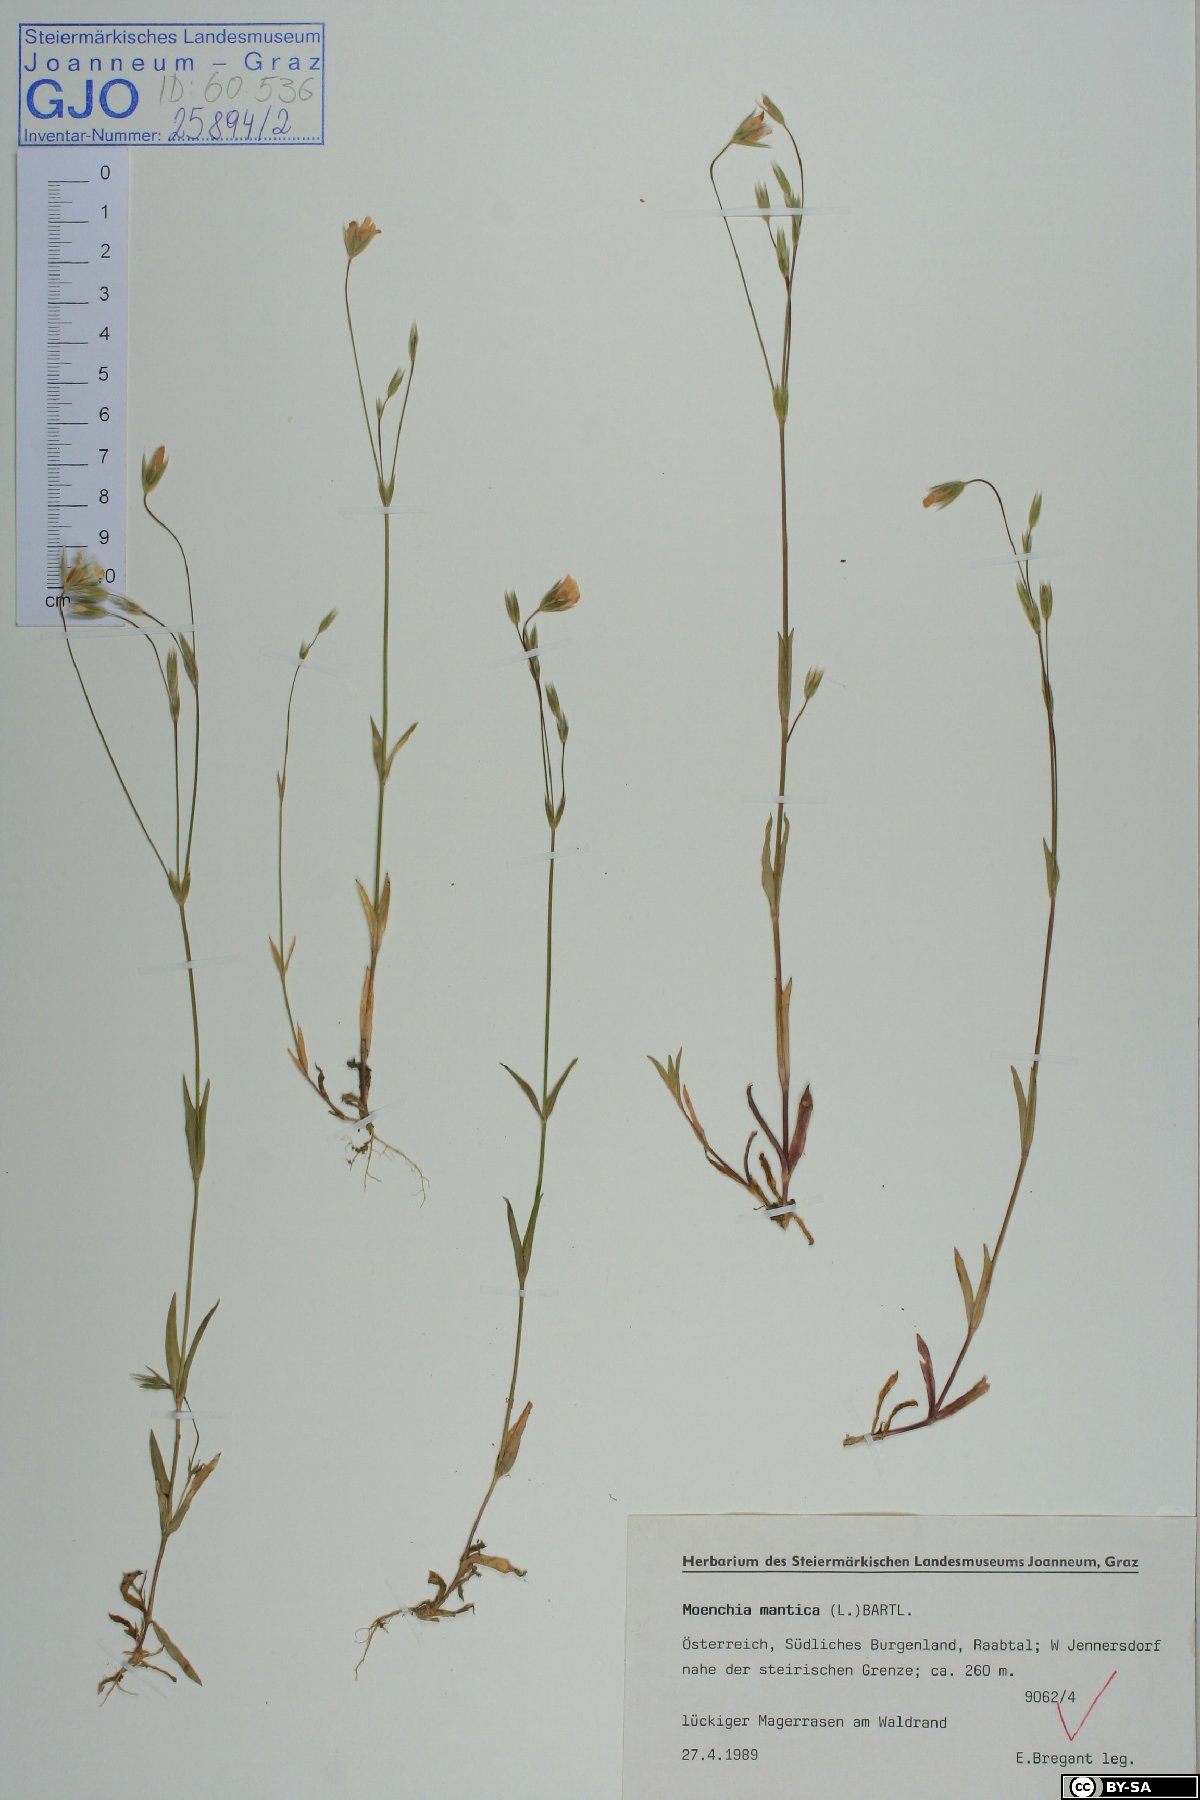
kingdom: Plantae
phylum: Tracheophyta
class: Magnoliopsida
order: Caryophyllales
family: Caryophyllaceae
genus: Moenchia
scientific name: Moenchia mantica
